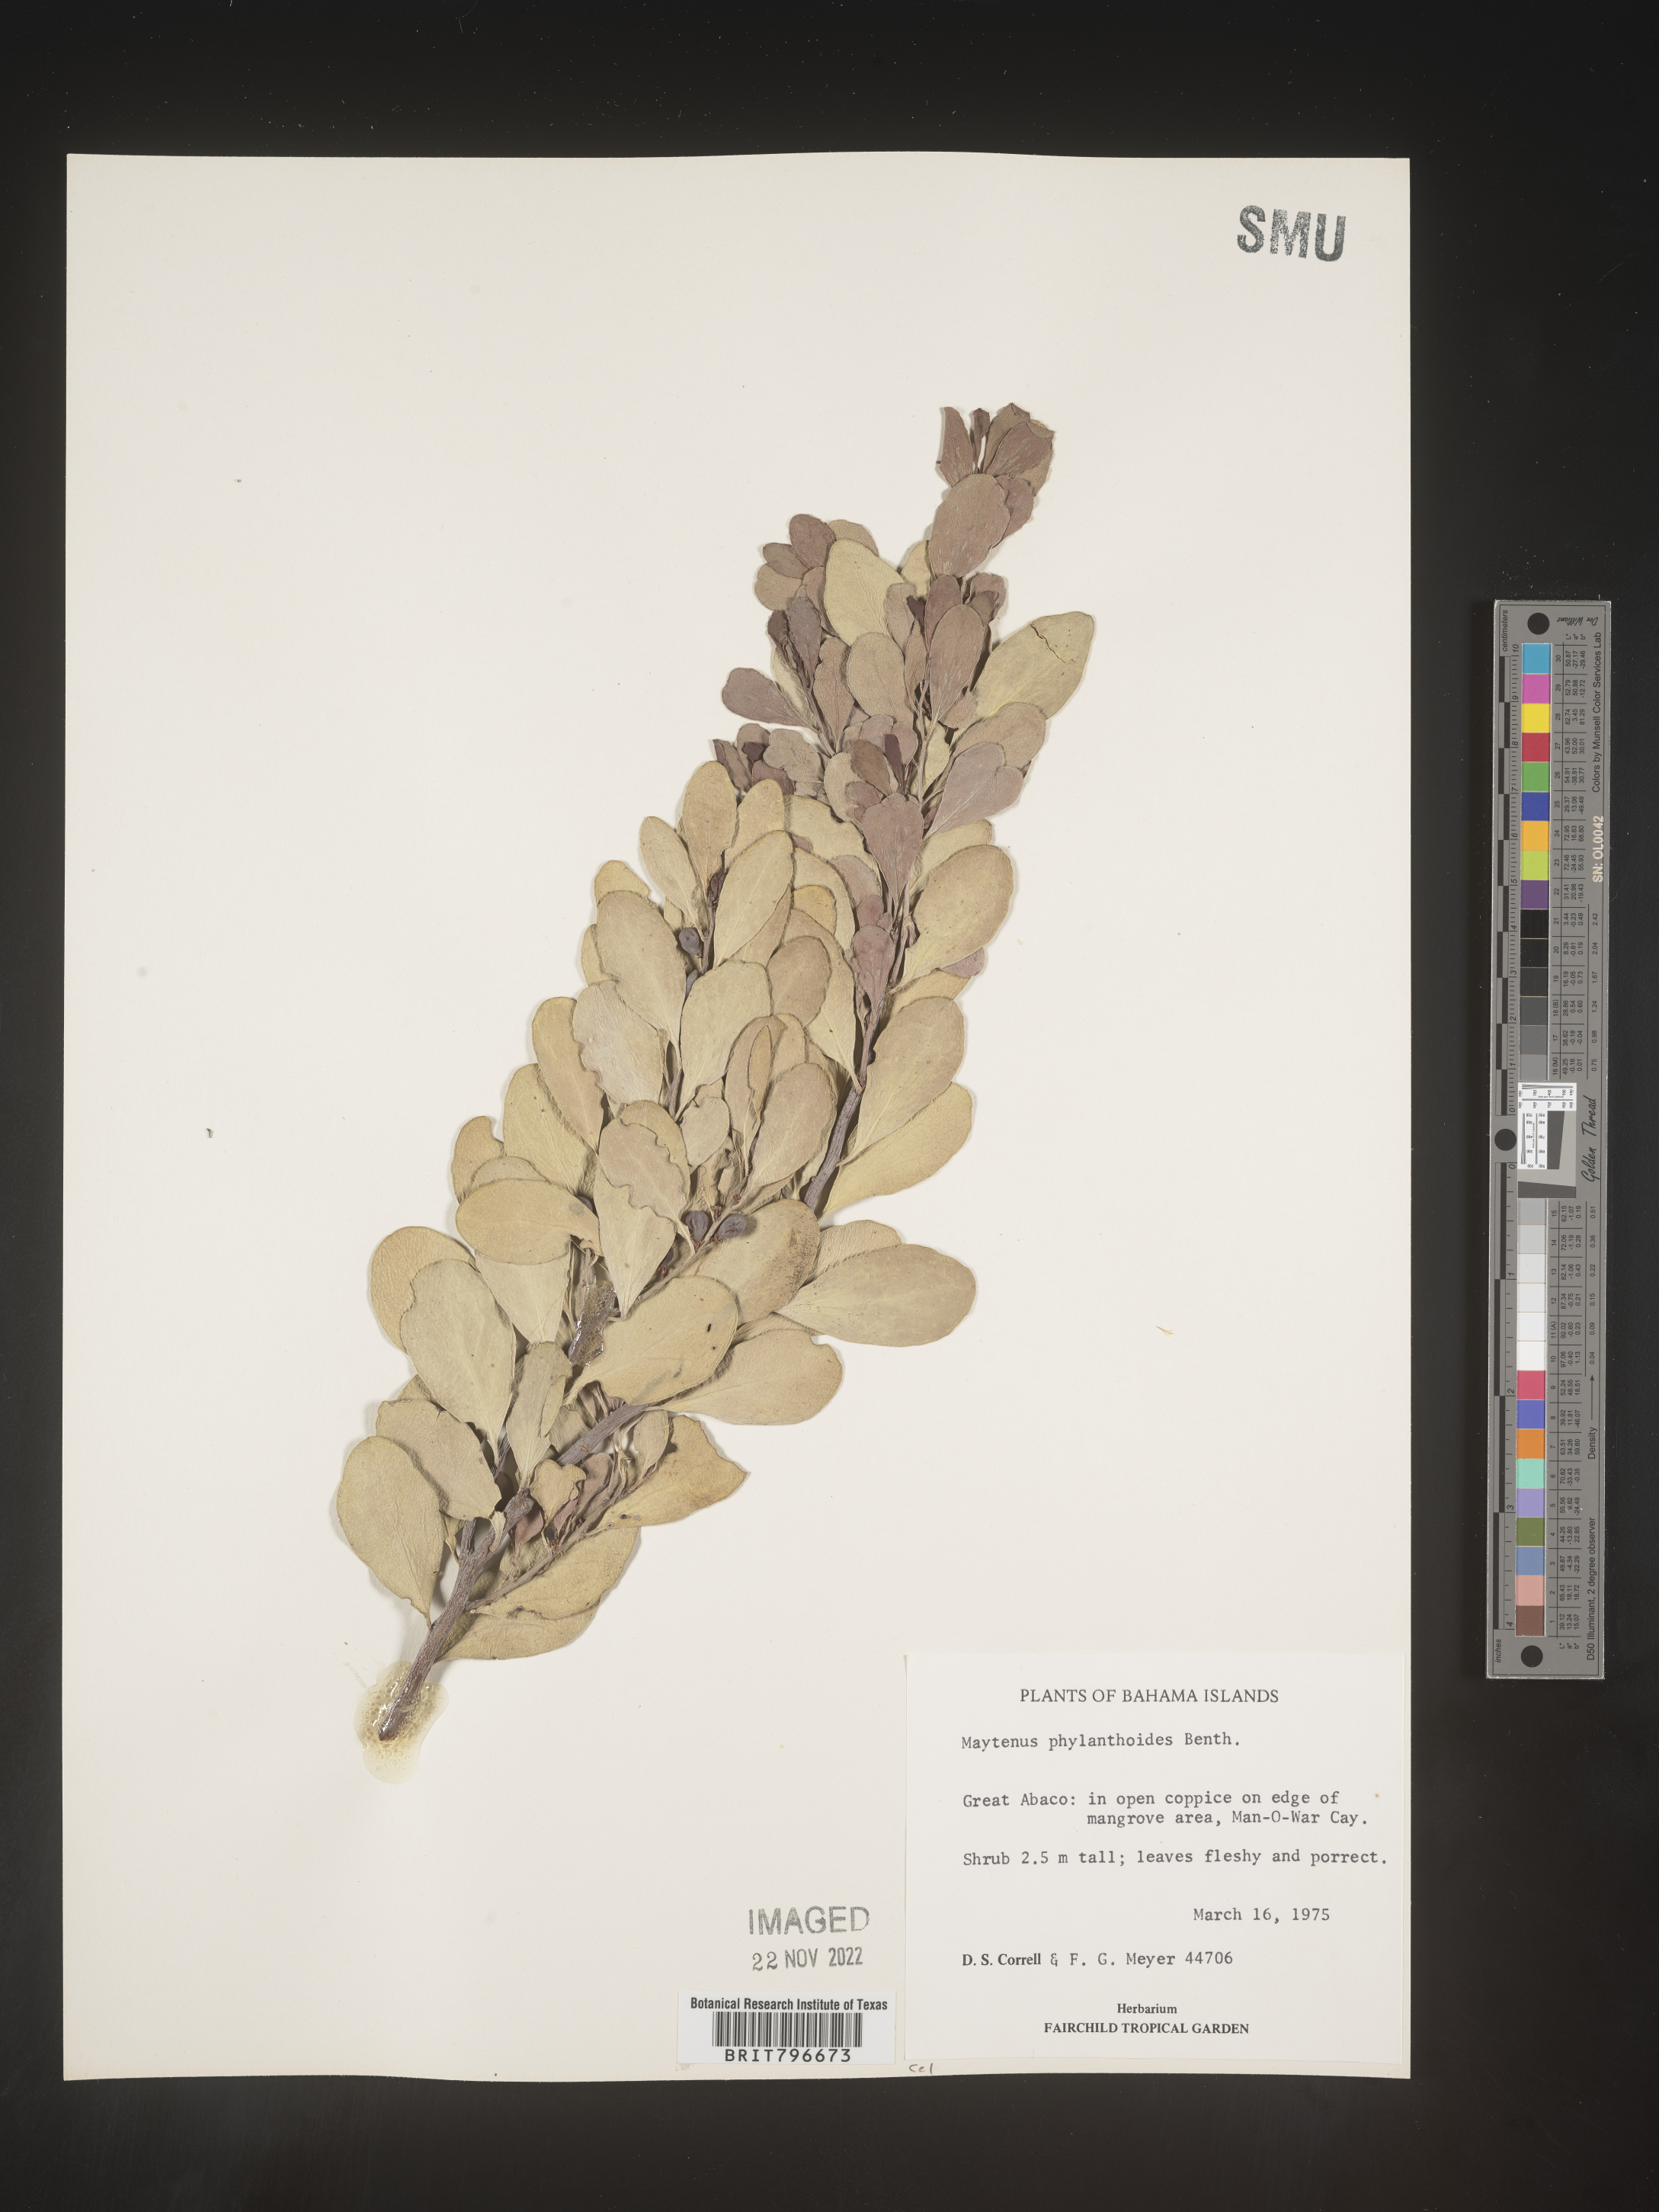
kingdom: Plantae
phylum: Tracheophyta
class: Magnoliopsida
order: Celastrales
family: Celastraceae
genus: Maytenus
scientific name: Maytenus
